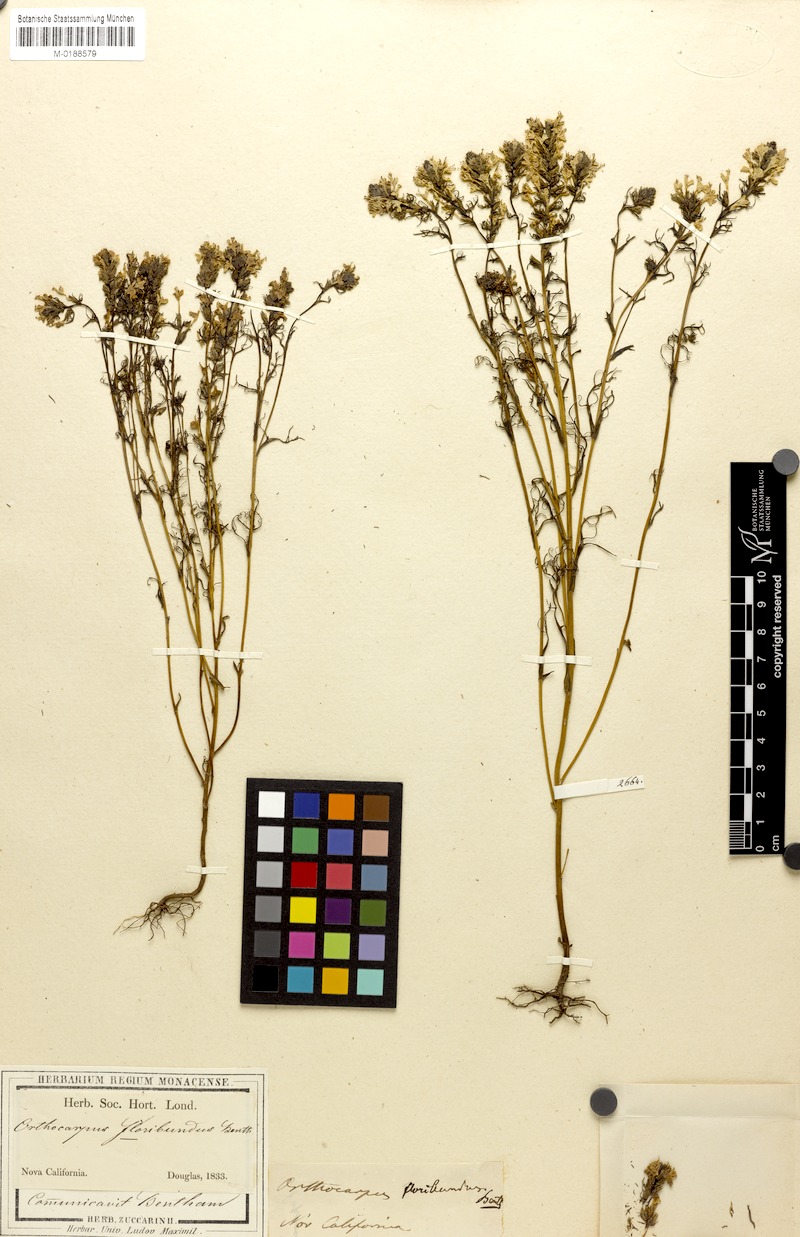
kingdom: Plantae
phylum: Tracheophyta
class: Magnoliopsida
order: Lamiales
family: Orobanchaceae
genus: Triphysaria
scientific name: Triphysaria floribunda
